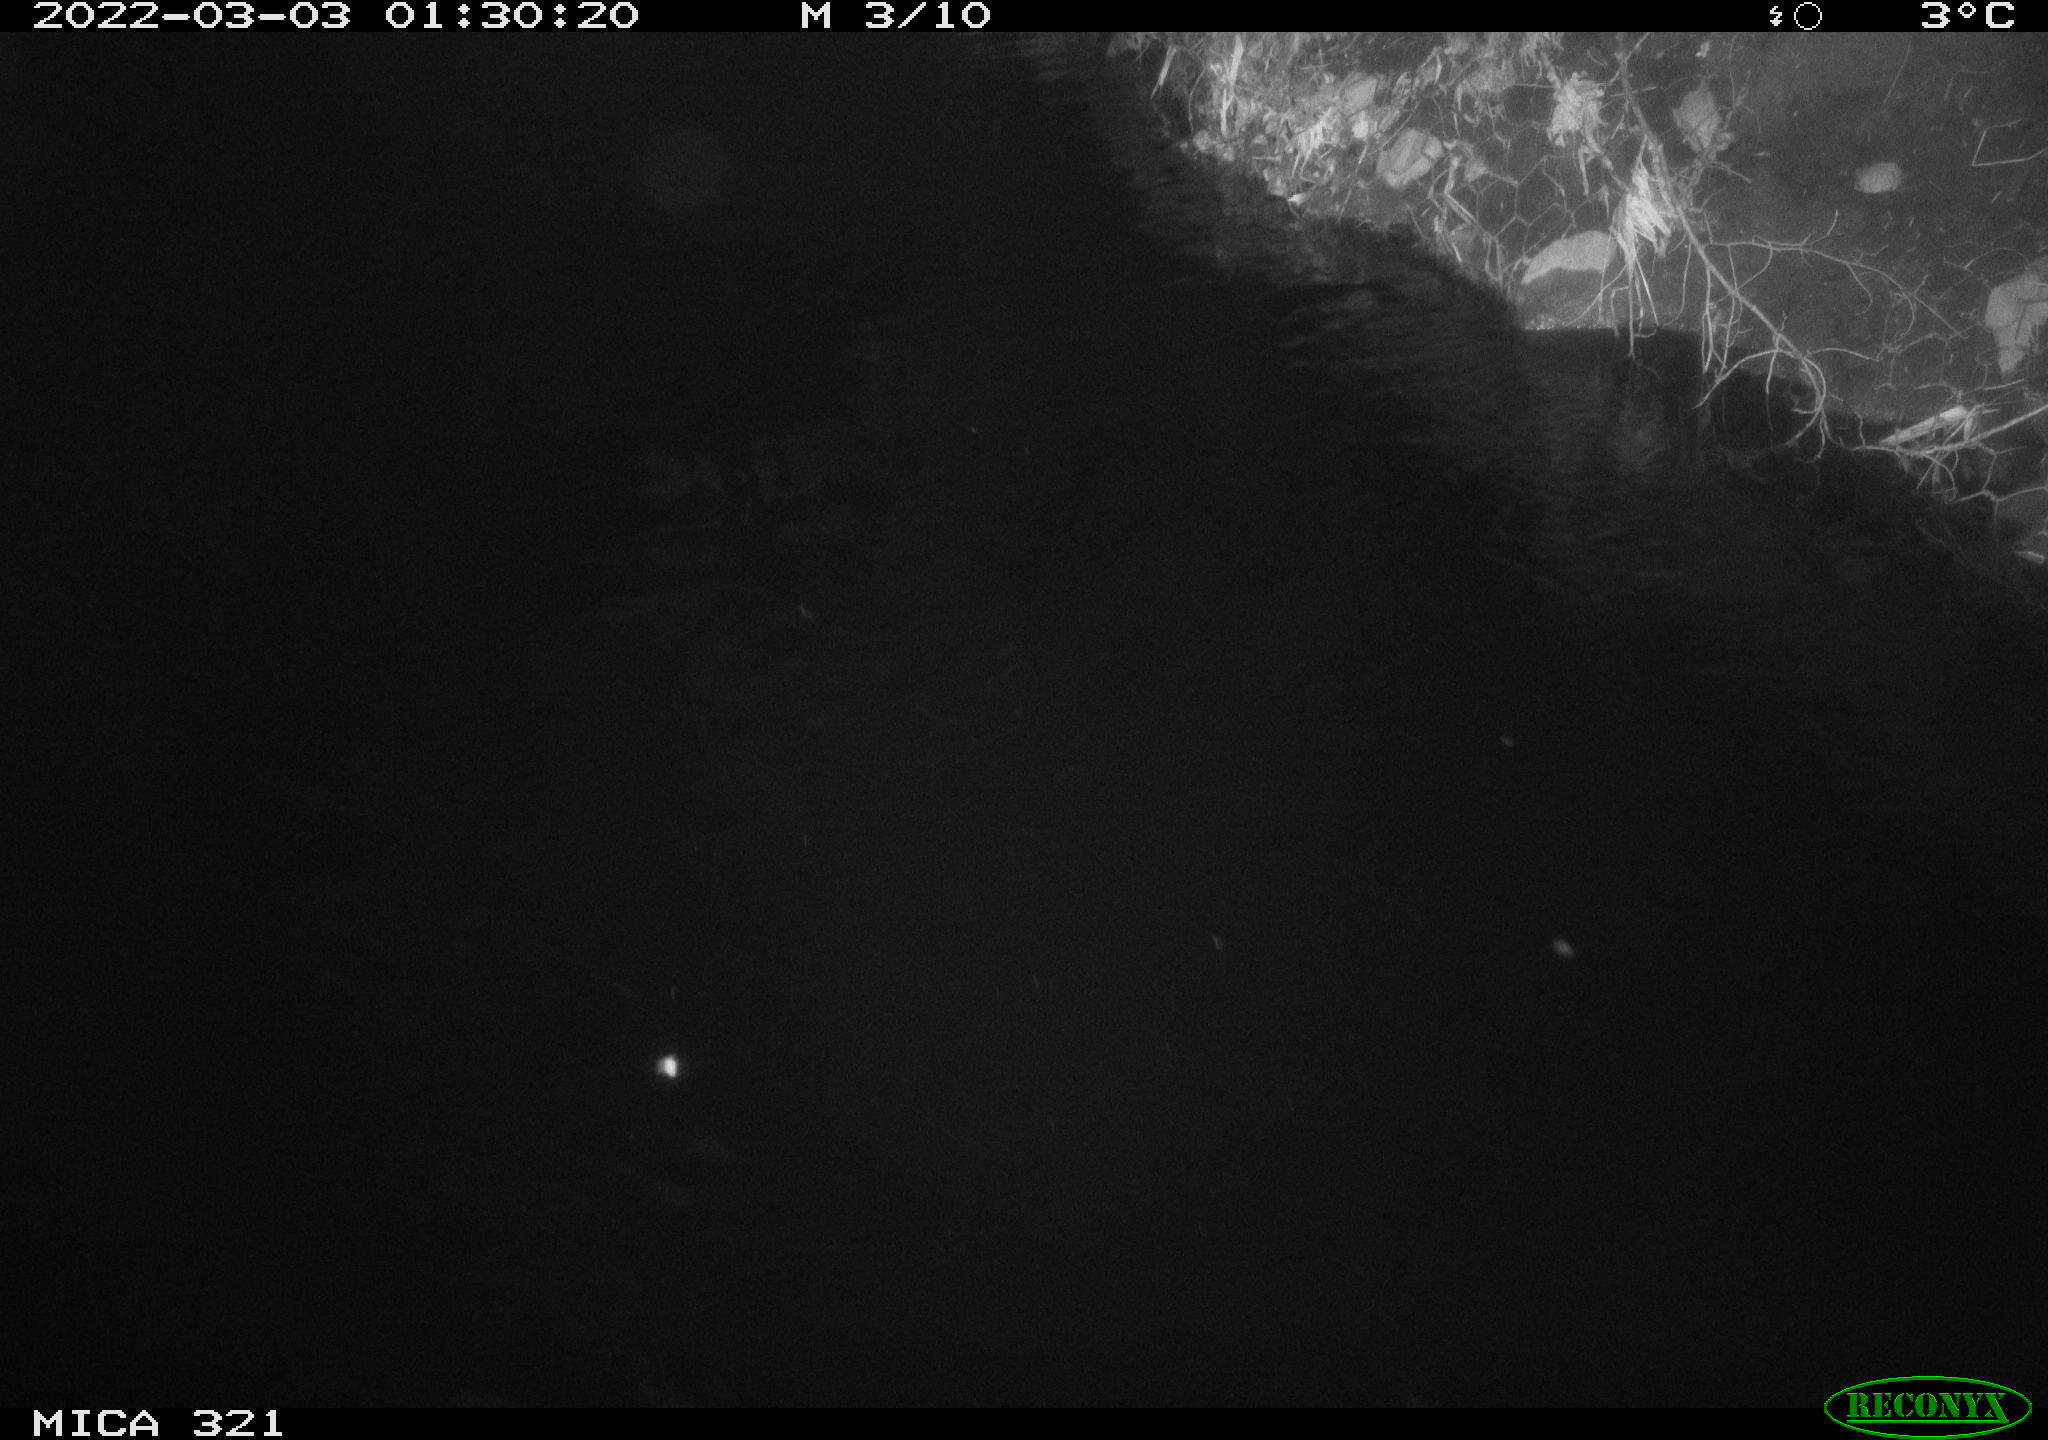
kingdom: Animalia
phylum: Chordata
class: Aves
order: Anseriformes
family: Anatidae
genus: Anas
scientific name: Anas platyrhynchos
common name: Mallard
